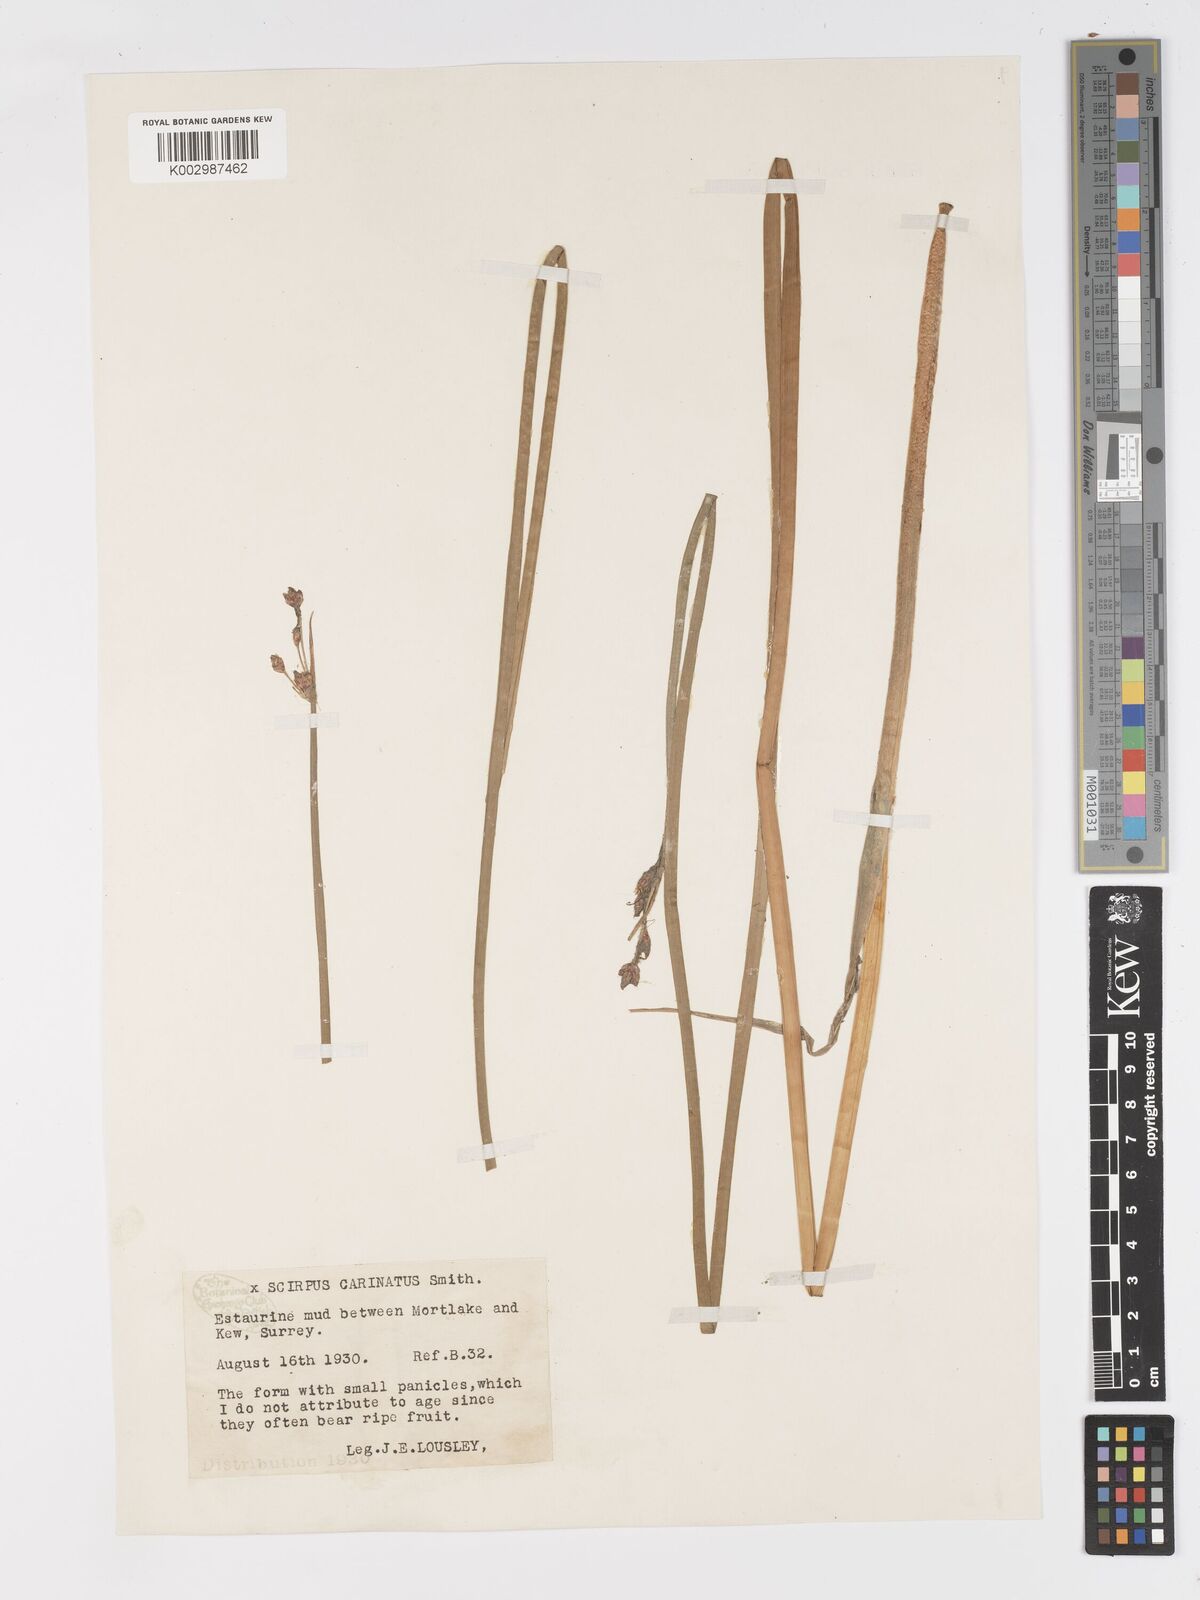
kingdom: Plantae
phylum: Tracheophyta
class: Liliopsida
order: Poales
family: Cyperaceae
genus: Schoenoplectus
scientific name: Schoenoplectus carinatus
